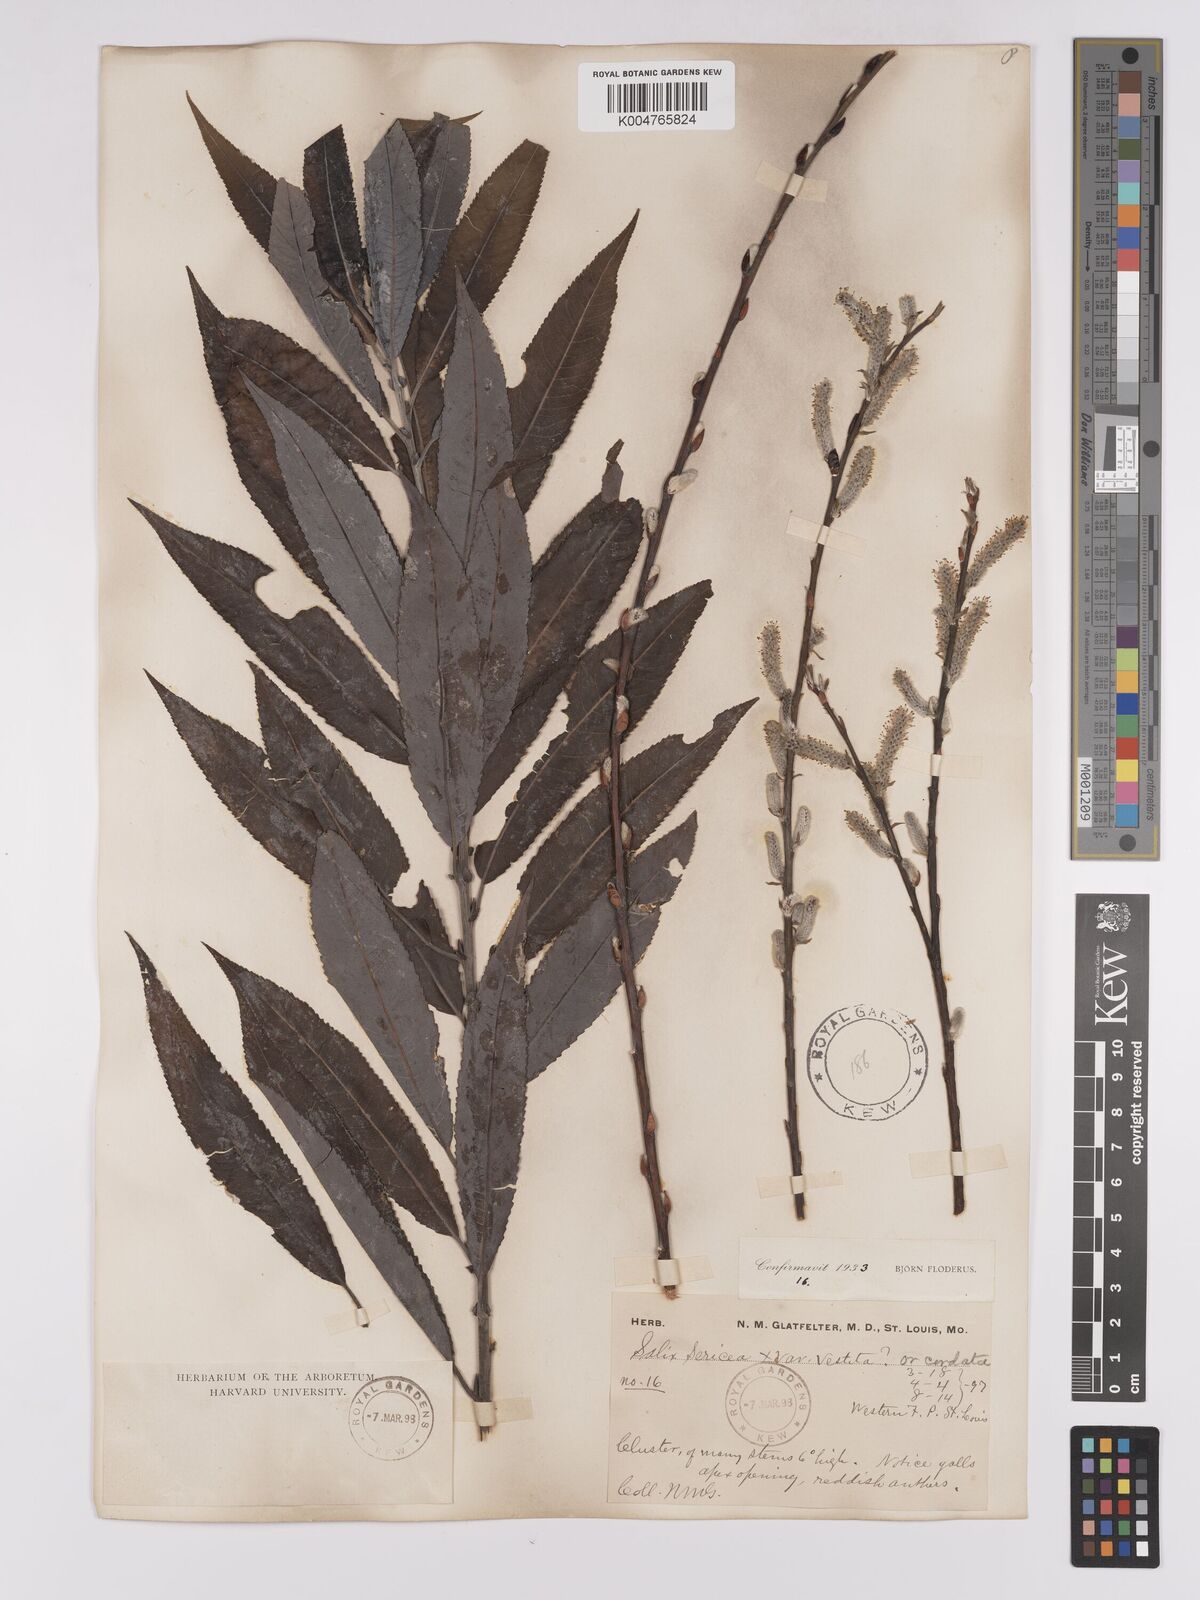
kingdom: Plantae
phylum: Tracheophyta
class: Magnoliopsida
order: Malpighiales
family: Salicaceae
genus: Salix
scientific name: Salix
